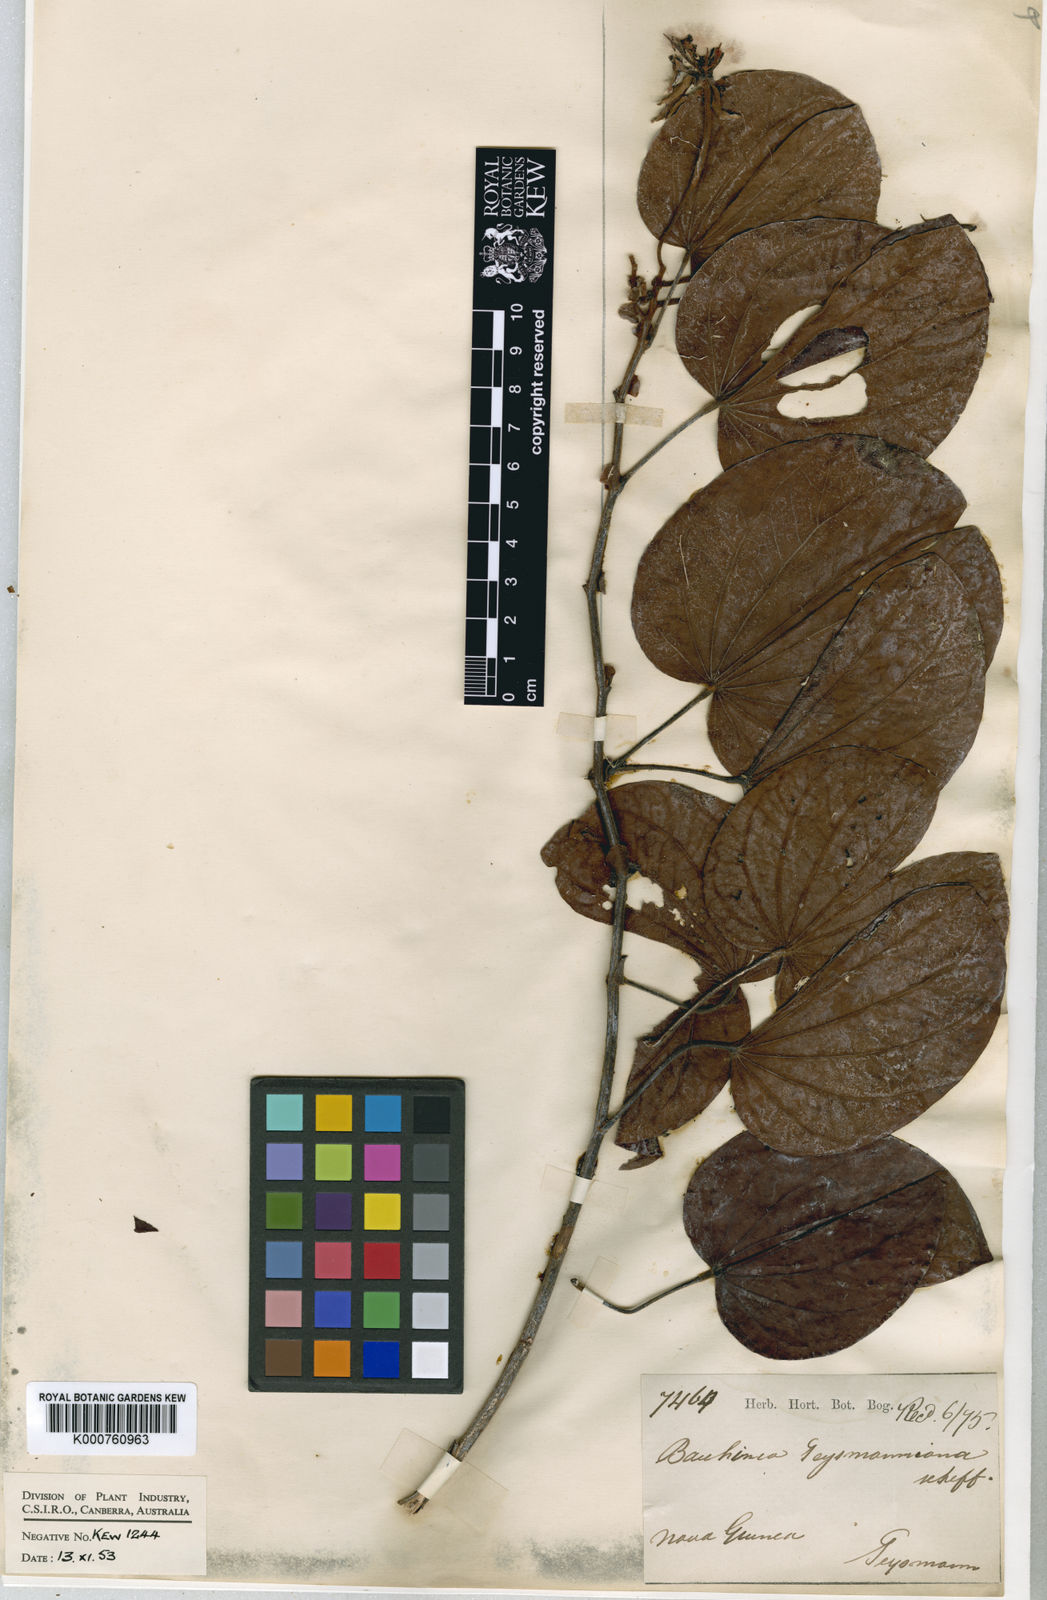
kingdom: Plantae
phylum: Tracheophyta
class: Magnoliopsida
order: Fabales
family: Fabaceae
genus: Phanera
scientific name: Phanera lingua
